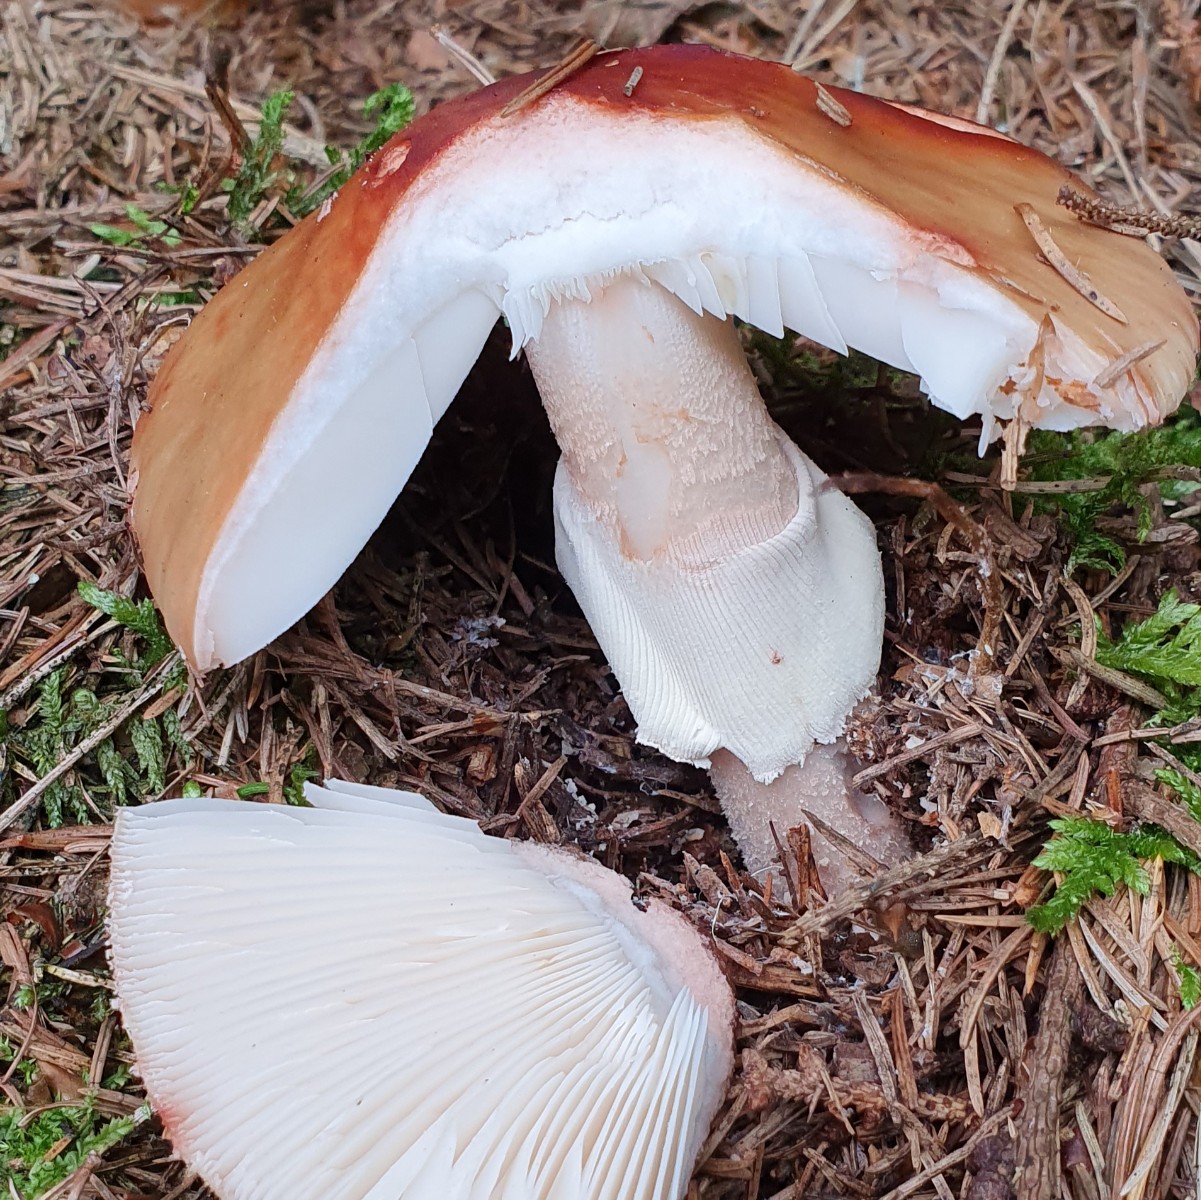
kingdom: Fungi
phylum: Basidiomycota
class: Agaricomycetes
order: Agaricales
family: Amanitaceae
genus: Amanita
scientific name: Amanita rubescens
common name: rødmende fluesvamp
